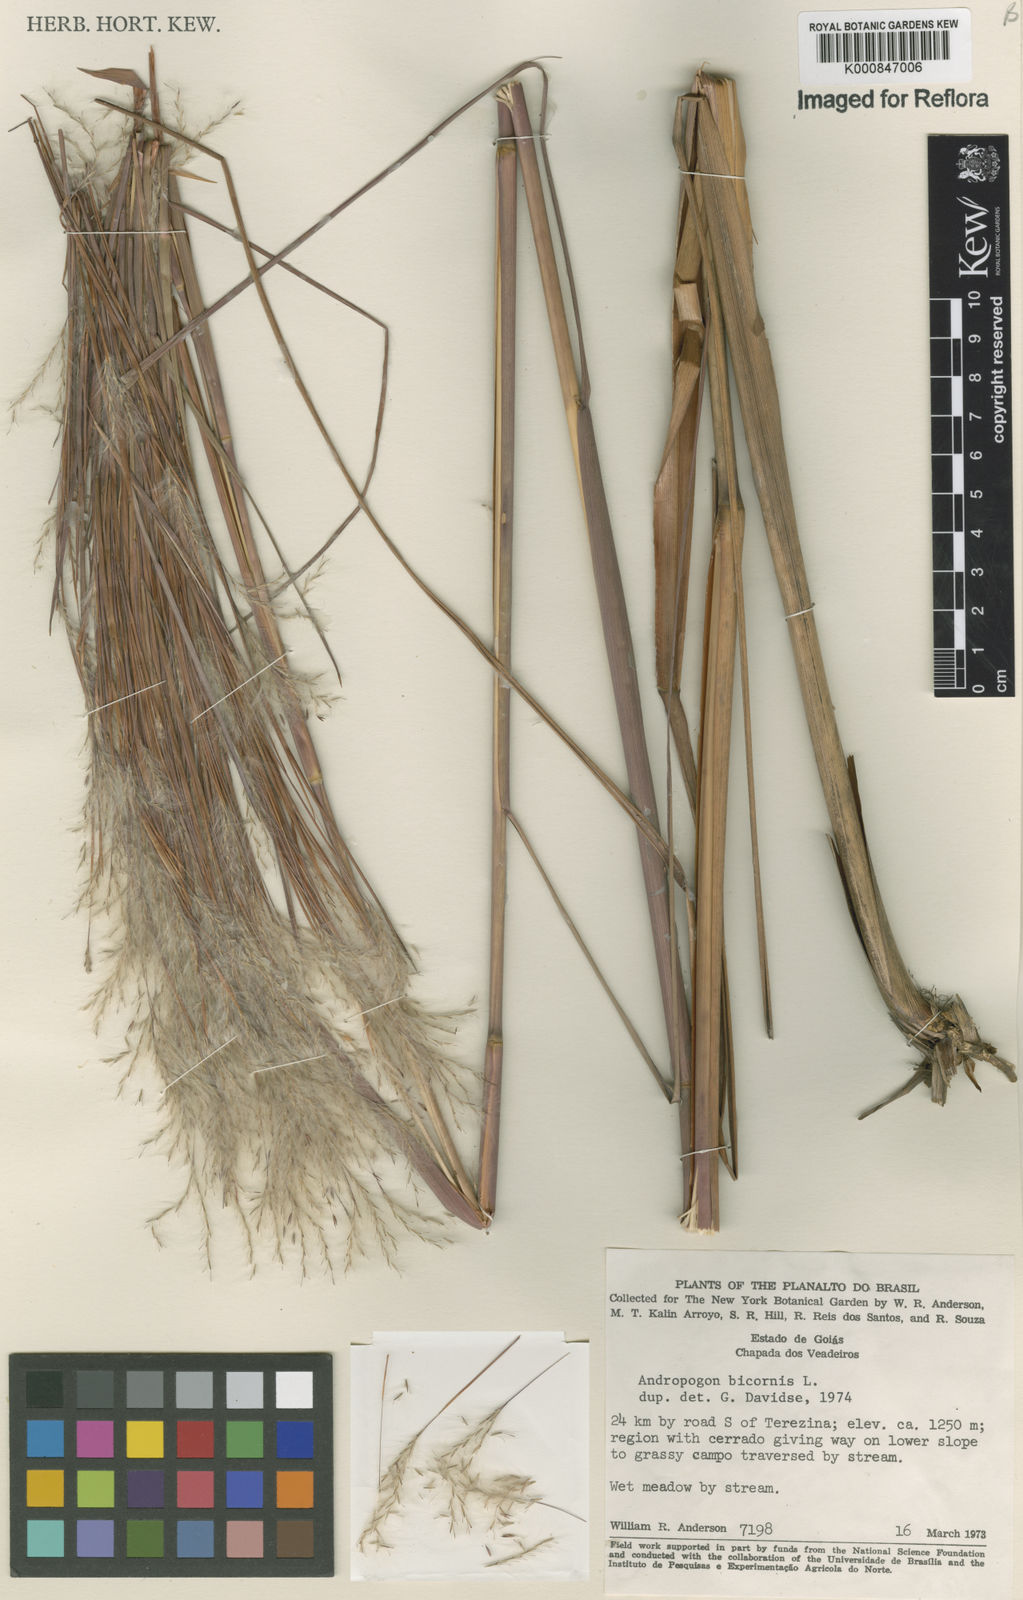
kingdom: Plantae
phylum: Tracheophyta
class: Liliopsida
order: Poales
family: Poaceae
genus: Andropogon
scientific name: Andropogon
